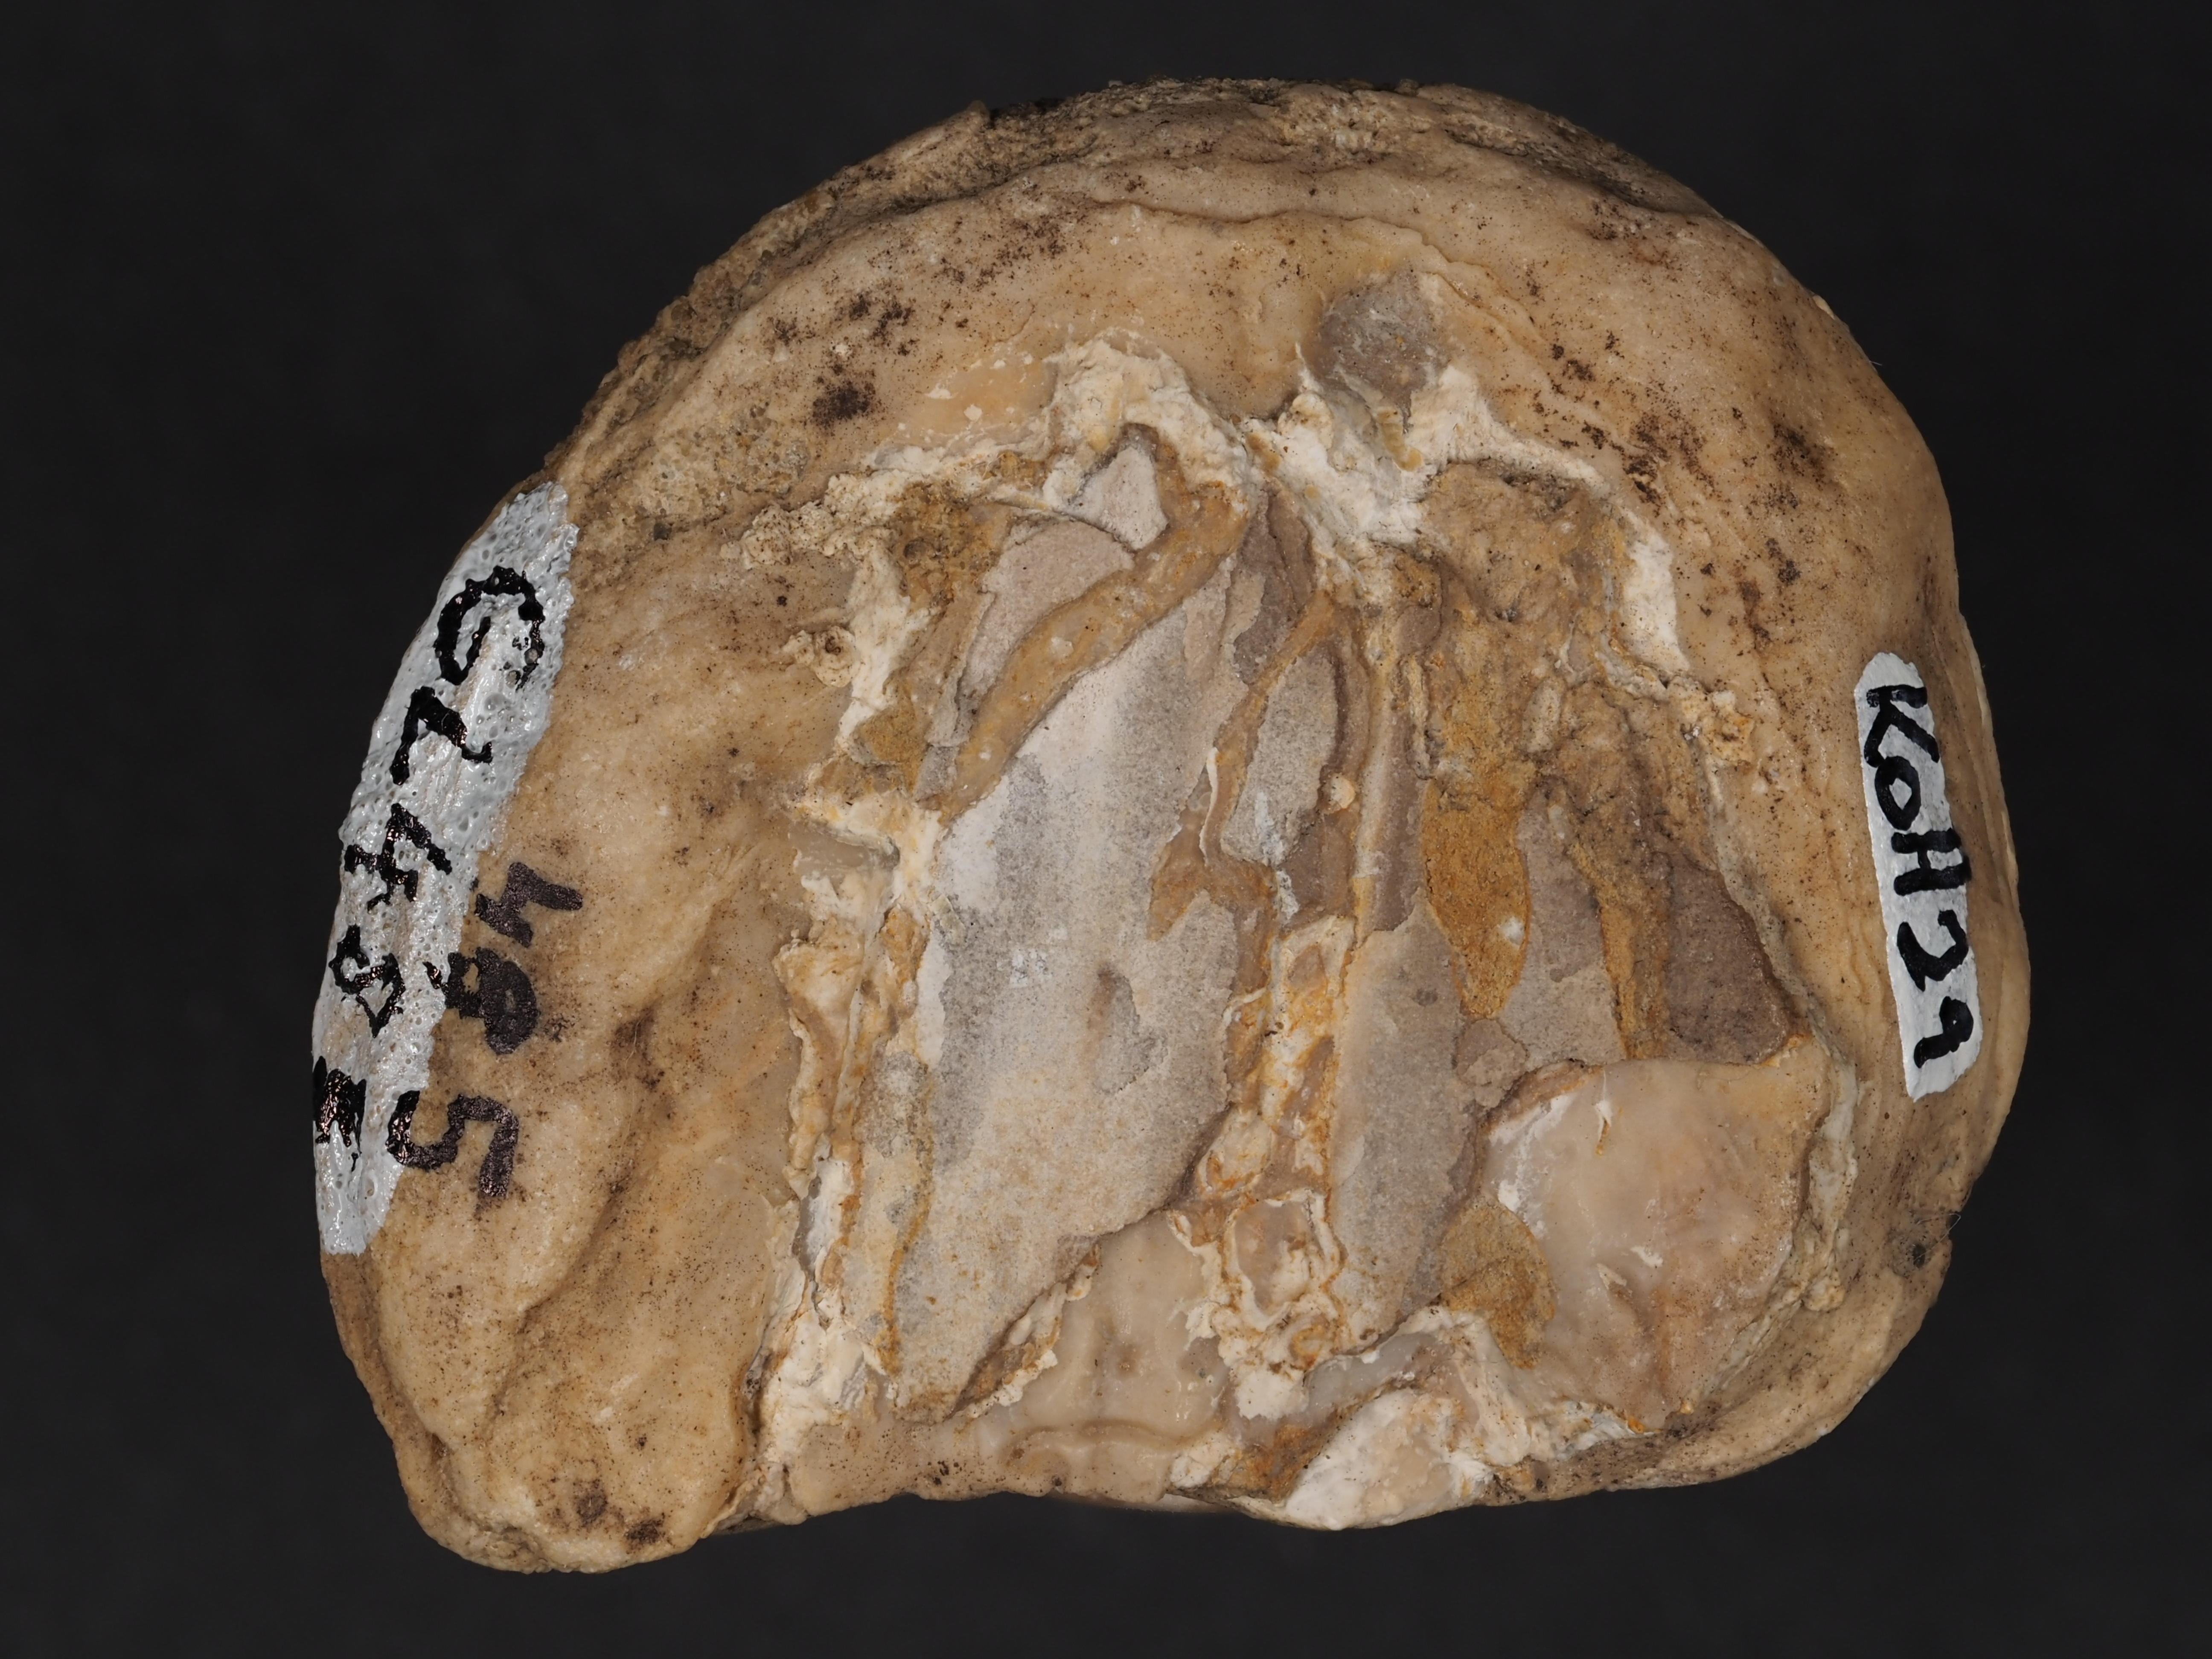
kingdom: Animalia
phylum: Mollusca
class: Bivalvia
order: Ostreida
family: Flemingostreidae
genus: Liostrea
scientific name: Liostrea
